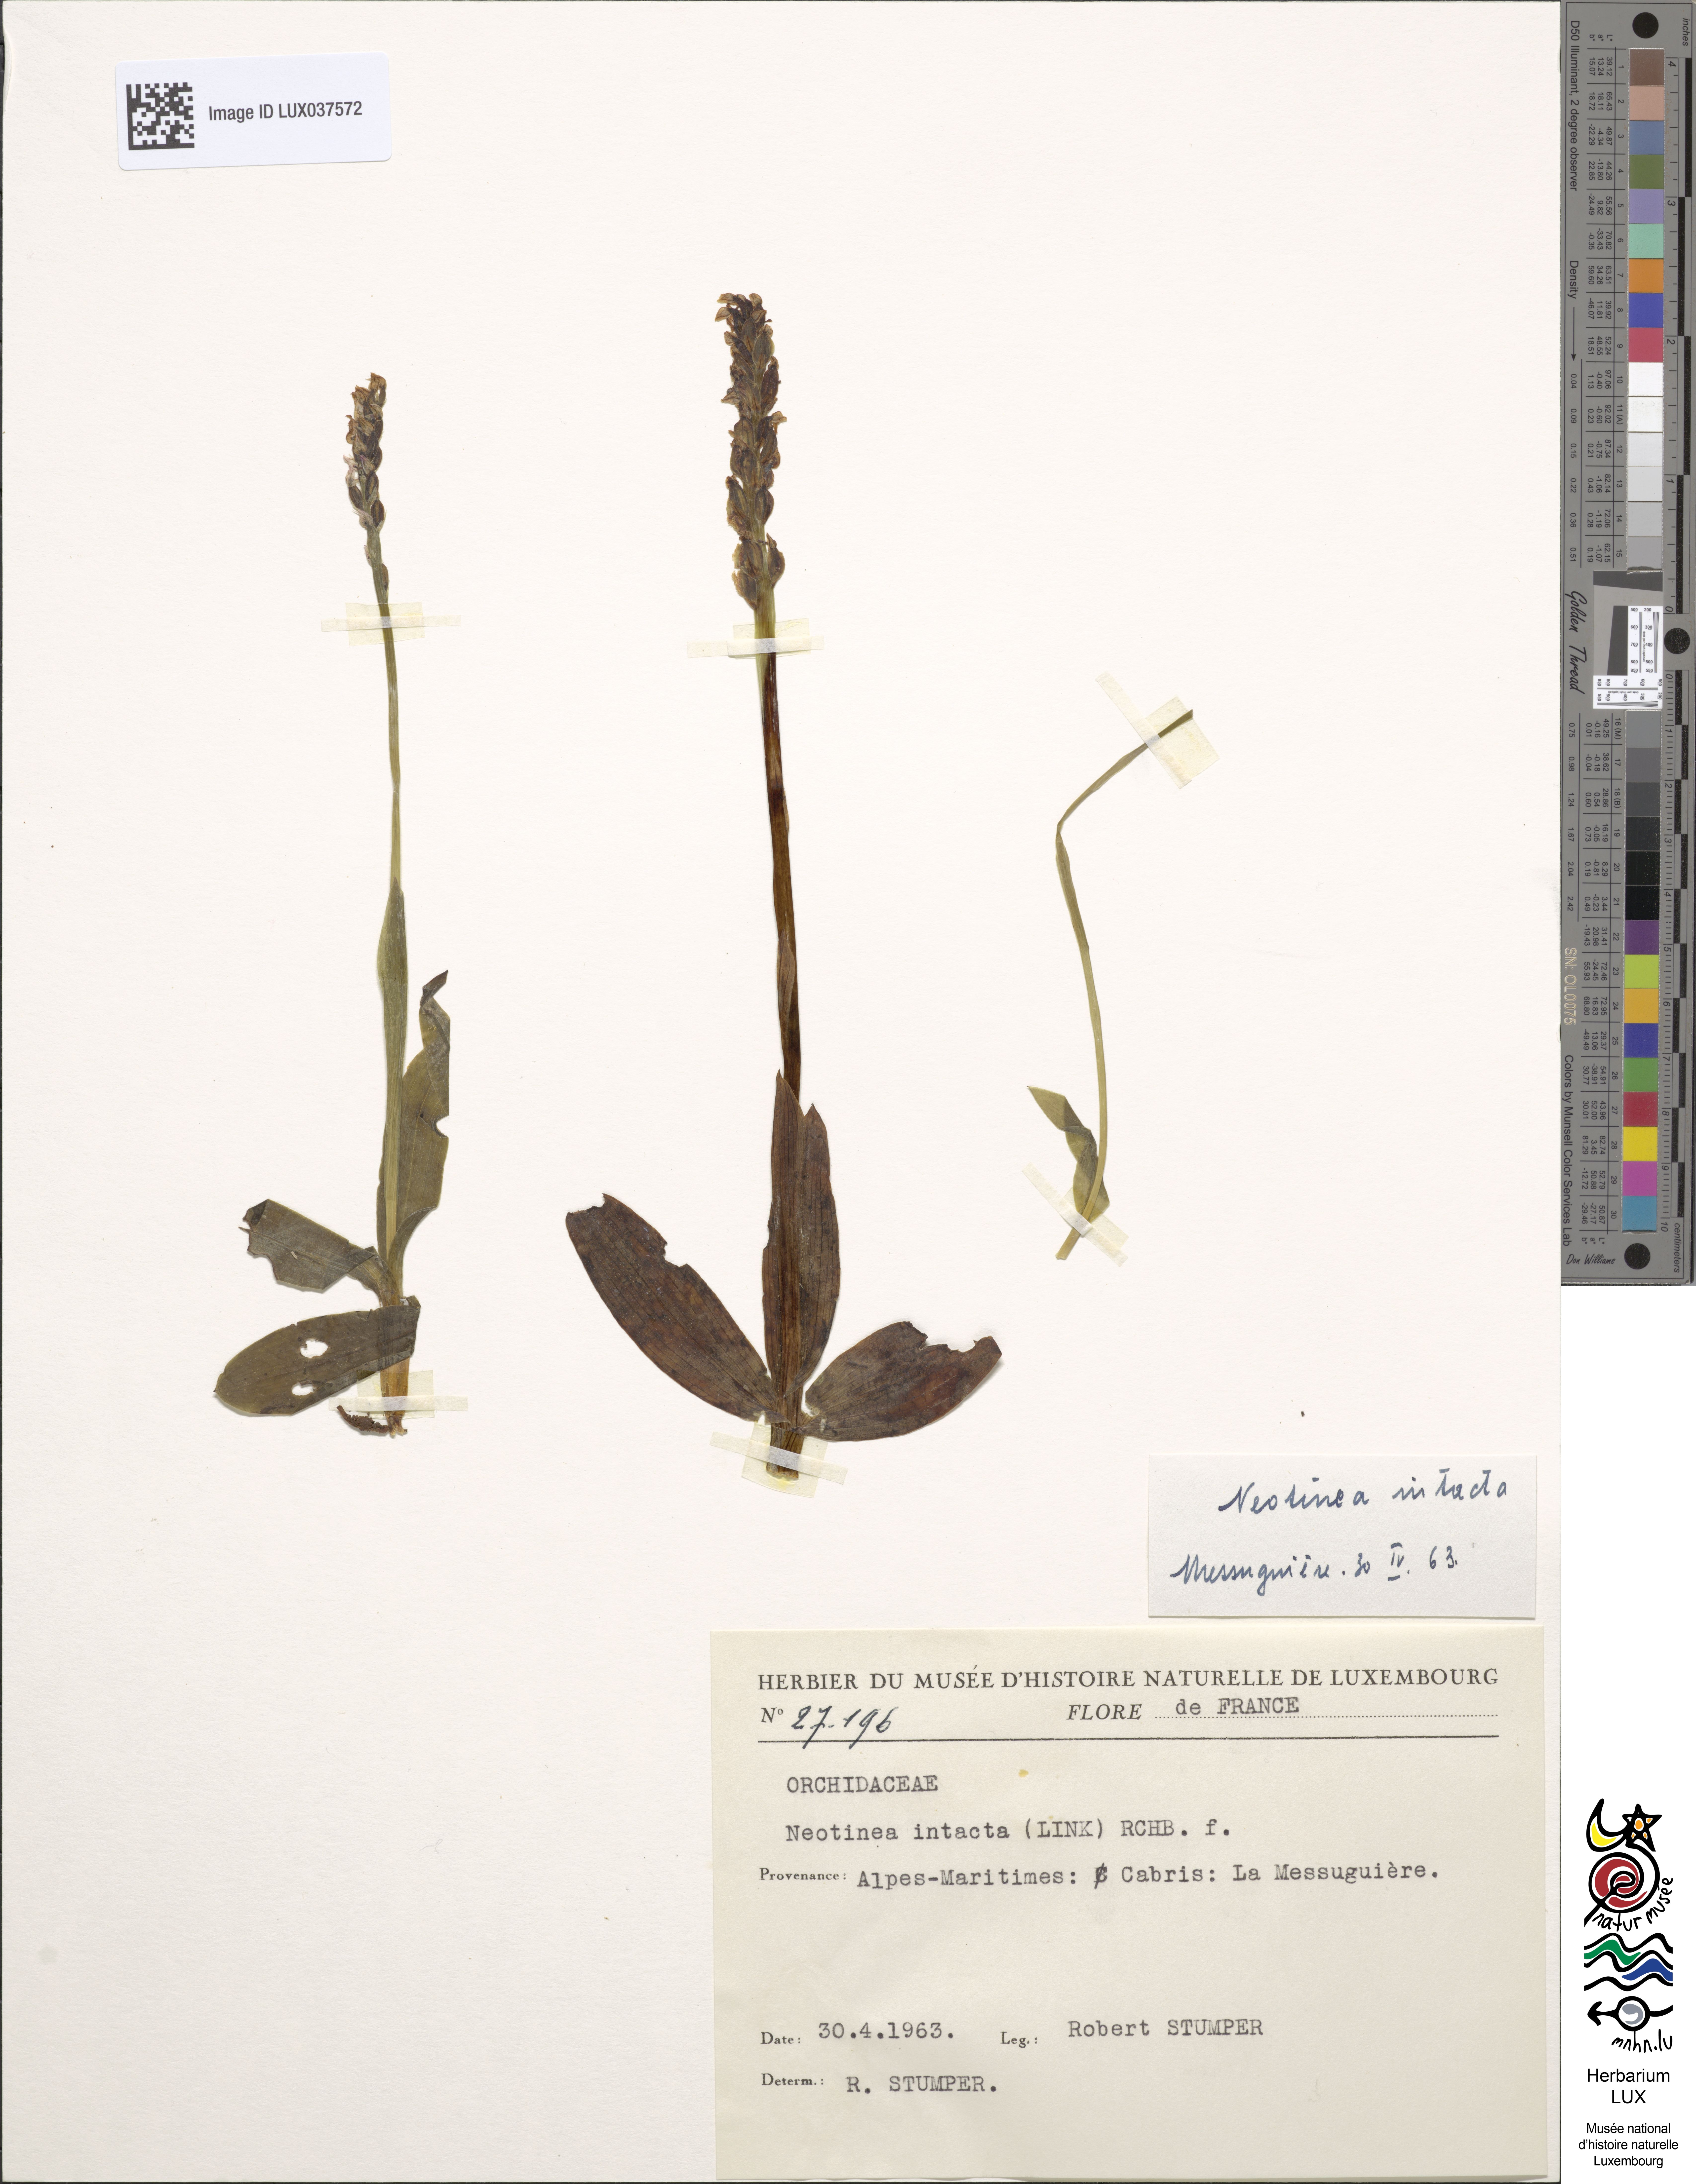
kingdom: Plantae
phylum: Tracheophyta
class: Liliopsida
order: Asparagales
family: Orchidaceae
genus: Neotinea
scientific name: Neotinea maculata
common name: Dense-flowered orchid
